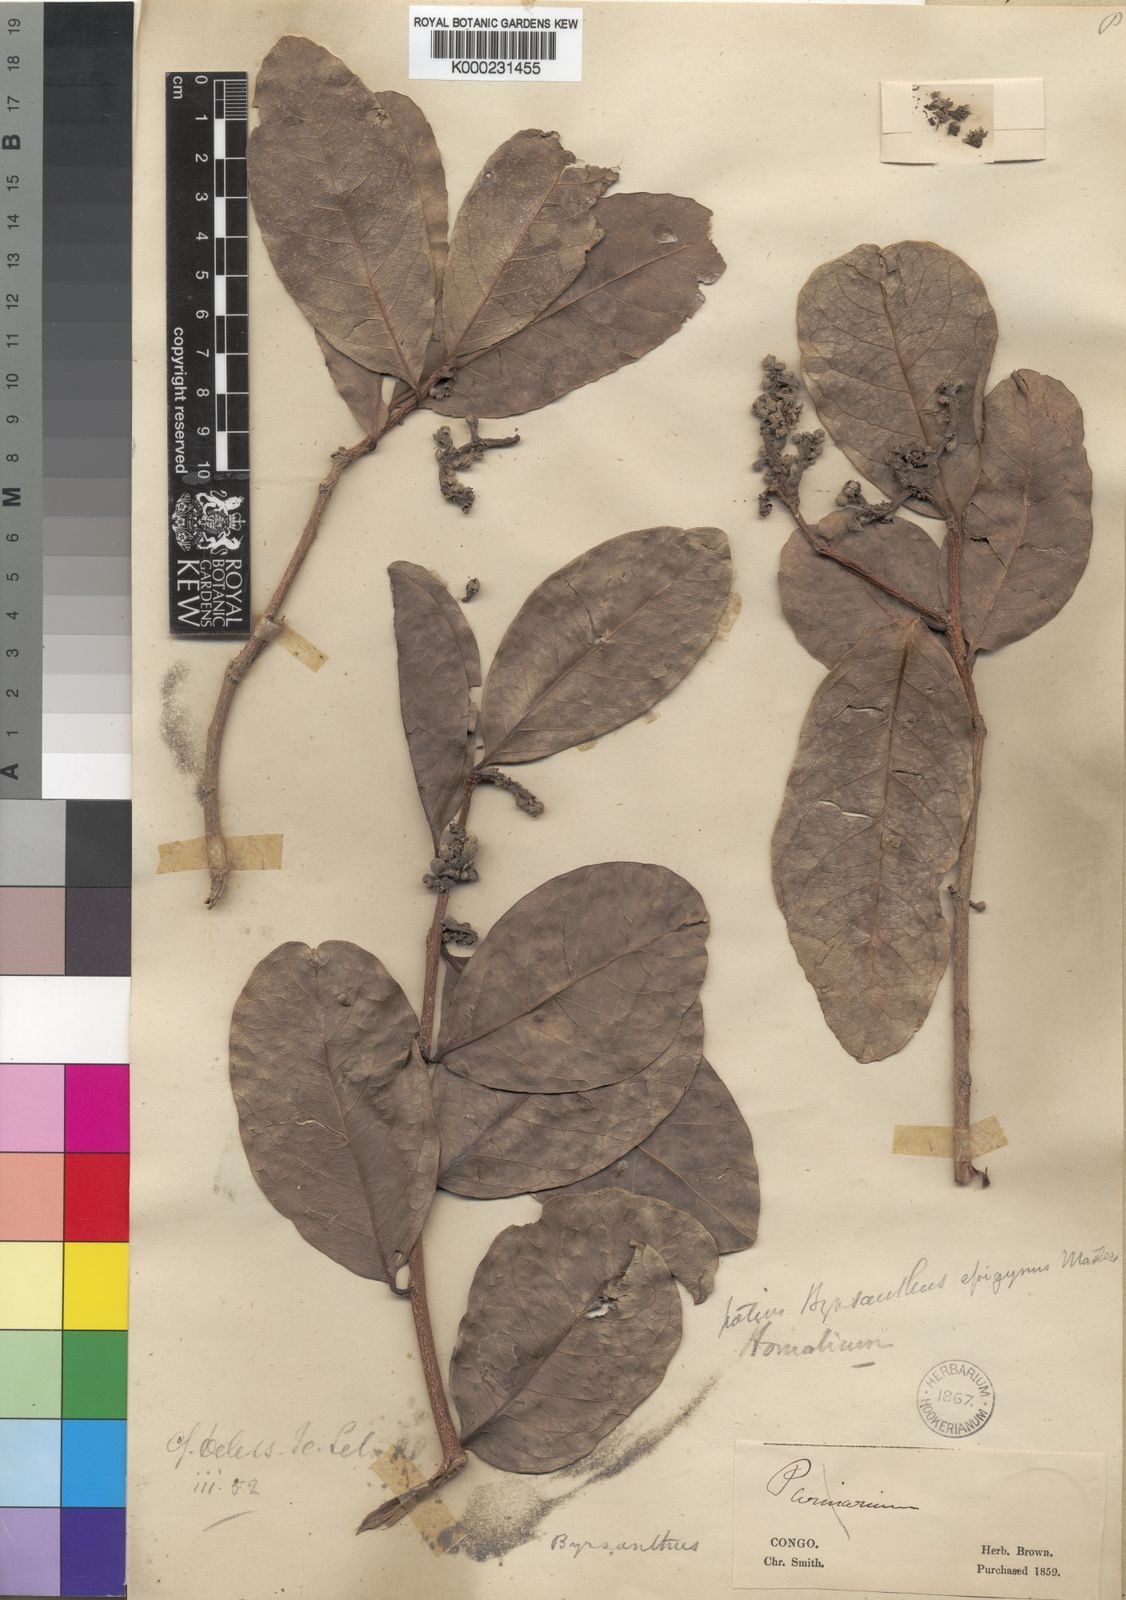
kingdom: Plantae
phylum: Tracheophyta
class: Magnoliopsida
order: Malpighiales
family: Salicaceae
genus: Byrsanthus
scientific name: Byrsanthus brownii
